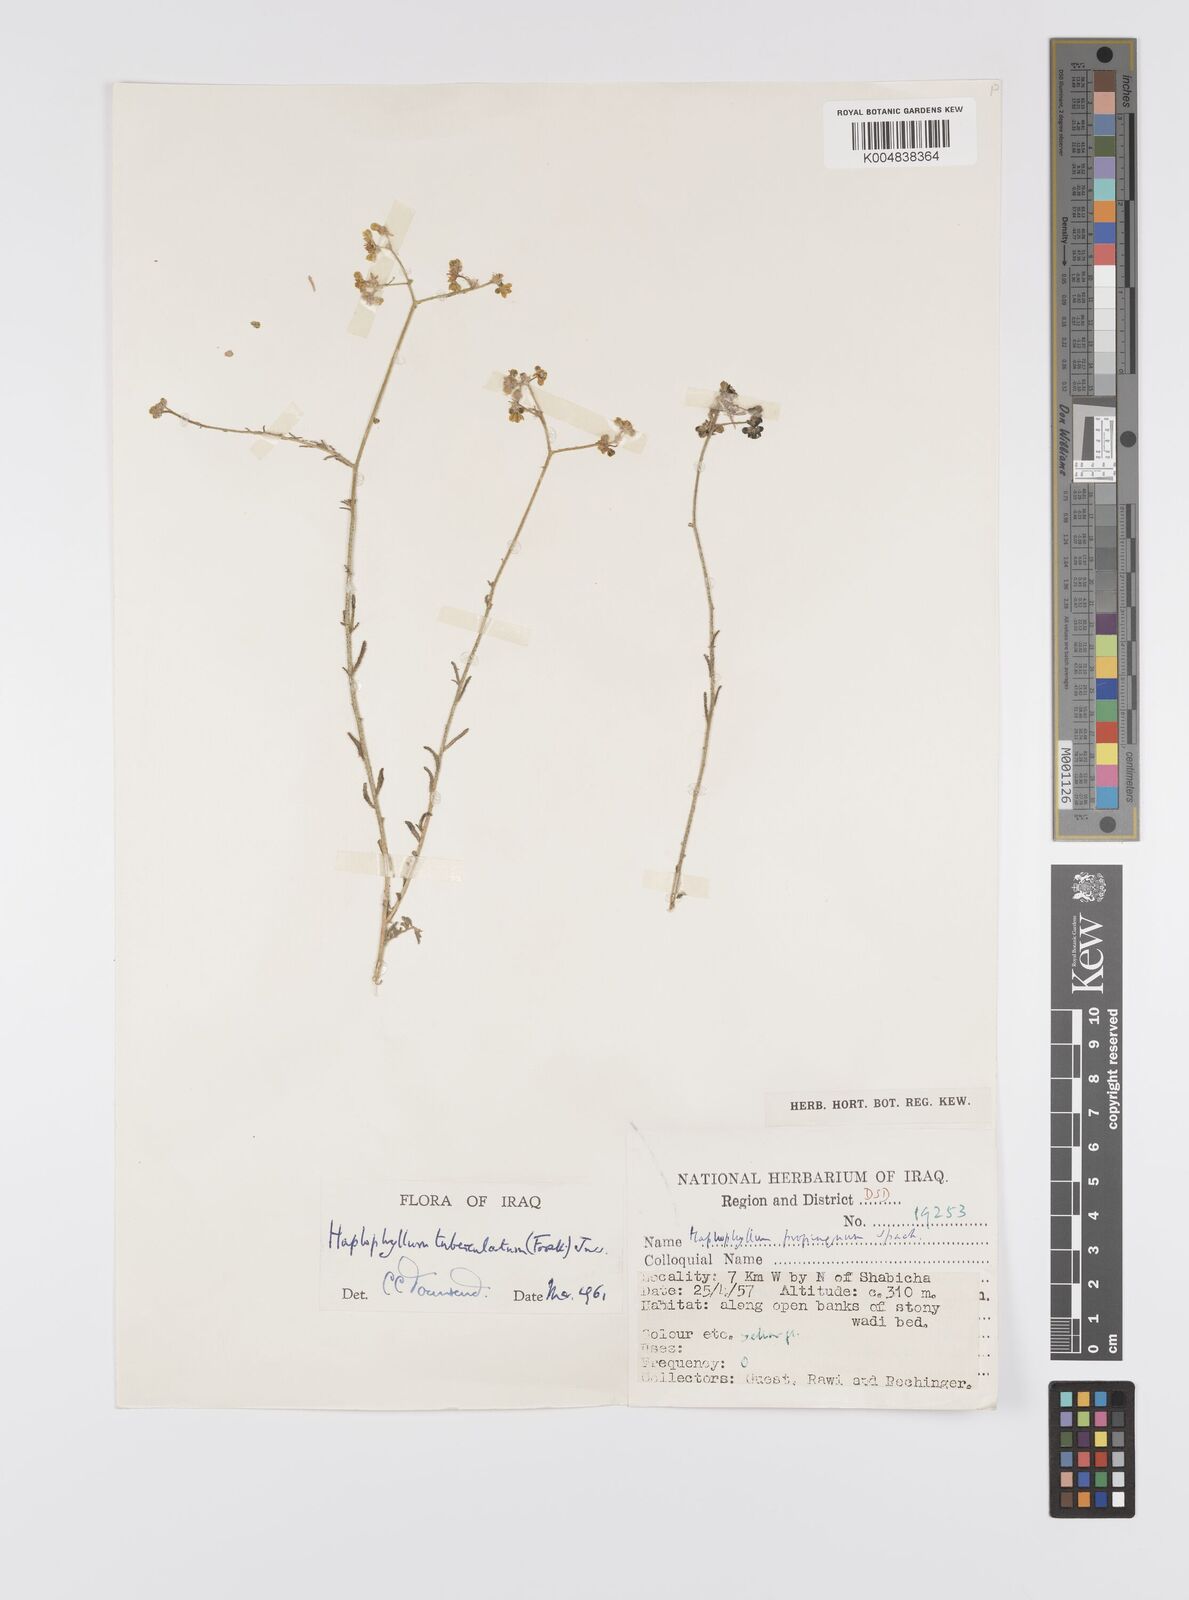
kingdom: Plantae
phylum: Tracheophyta
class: Magnoliopsida
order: Sapindales
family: Rutaceae
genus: Haplophyllum
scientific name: Haplophyllum tuberculatum
